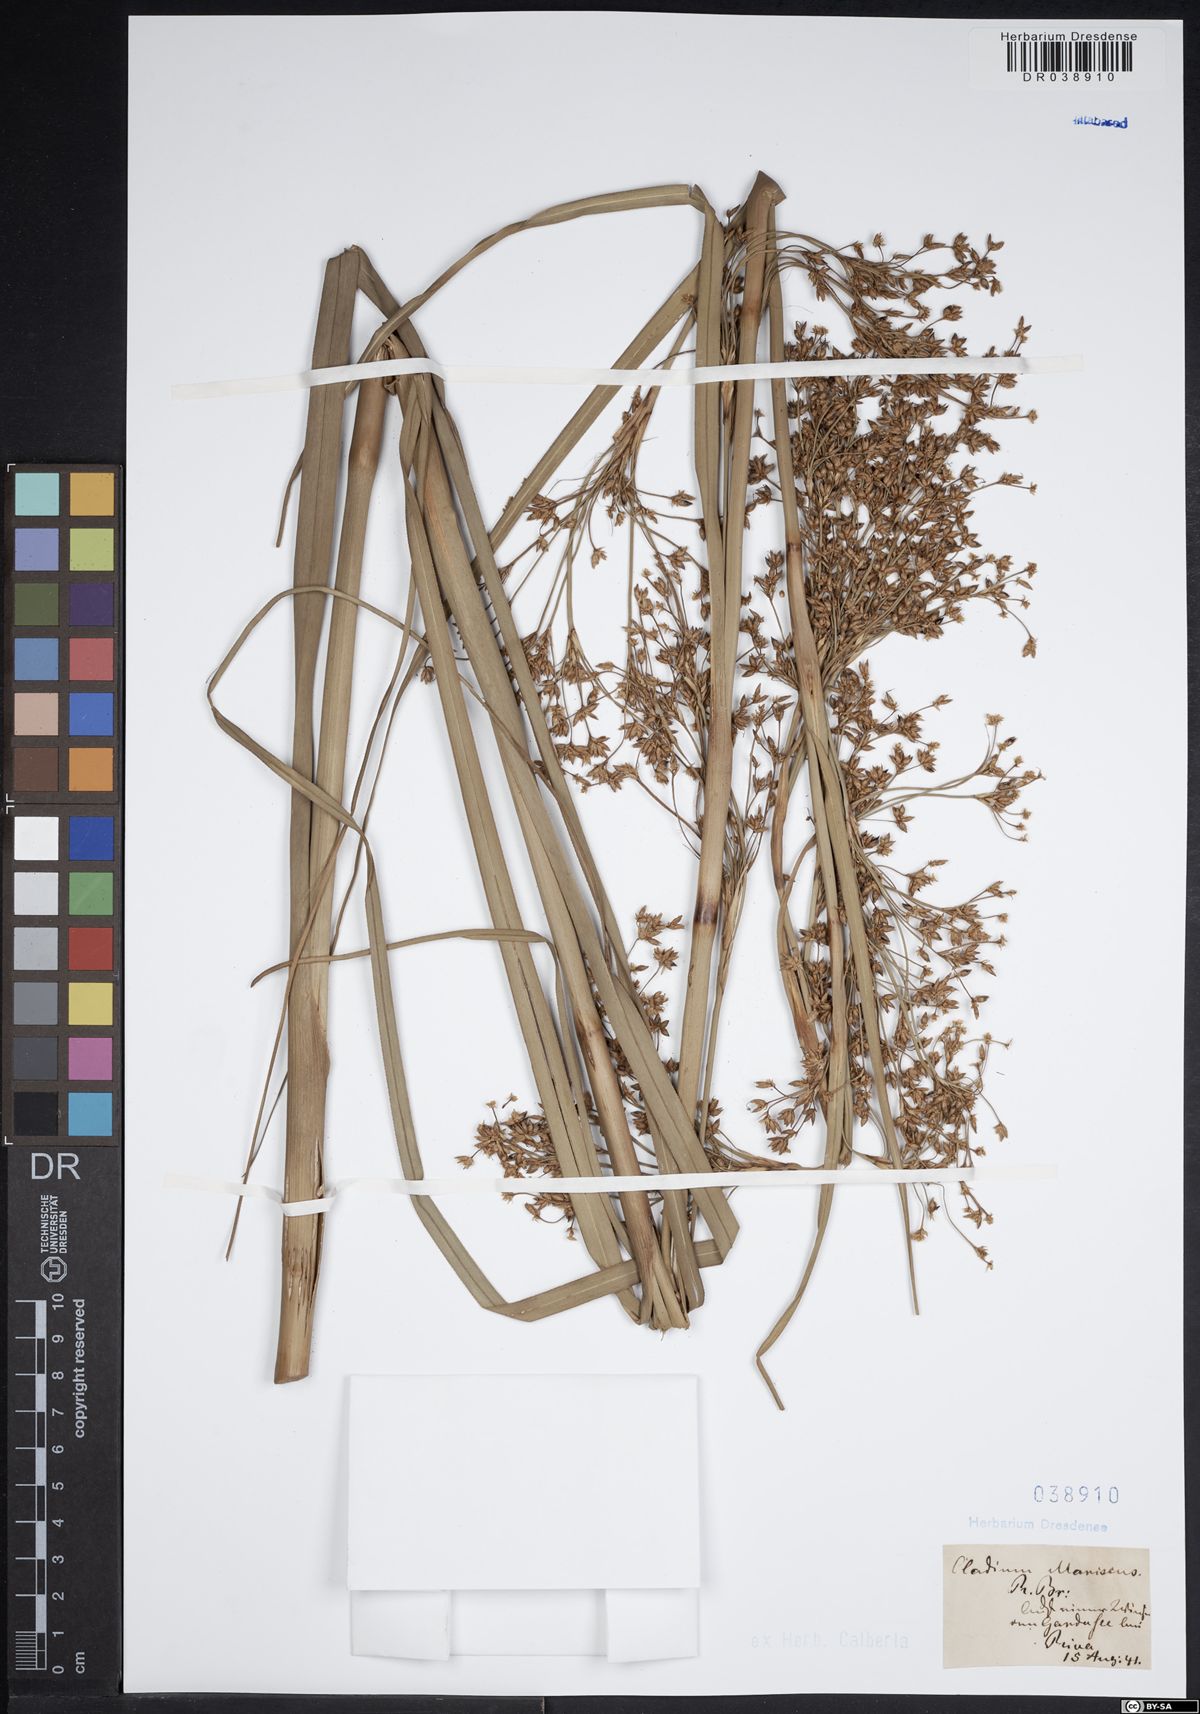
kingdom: Plantae
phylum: Tracheophyta
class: Liliopsida
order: Poales
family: Cyperaceae
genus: Cladium
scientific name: Cladium mariscus
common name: Great fen-sedge
